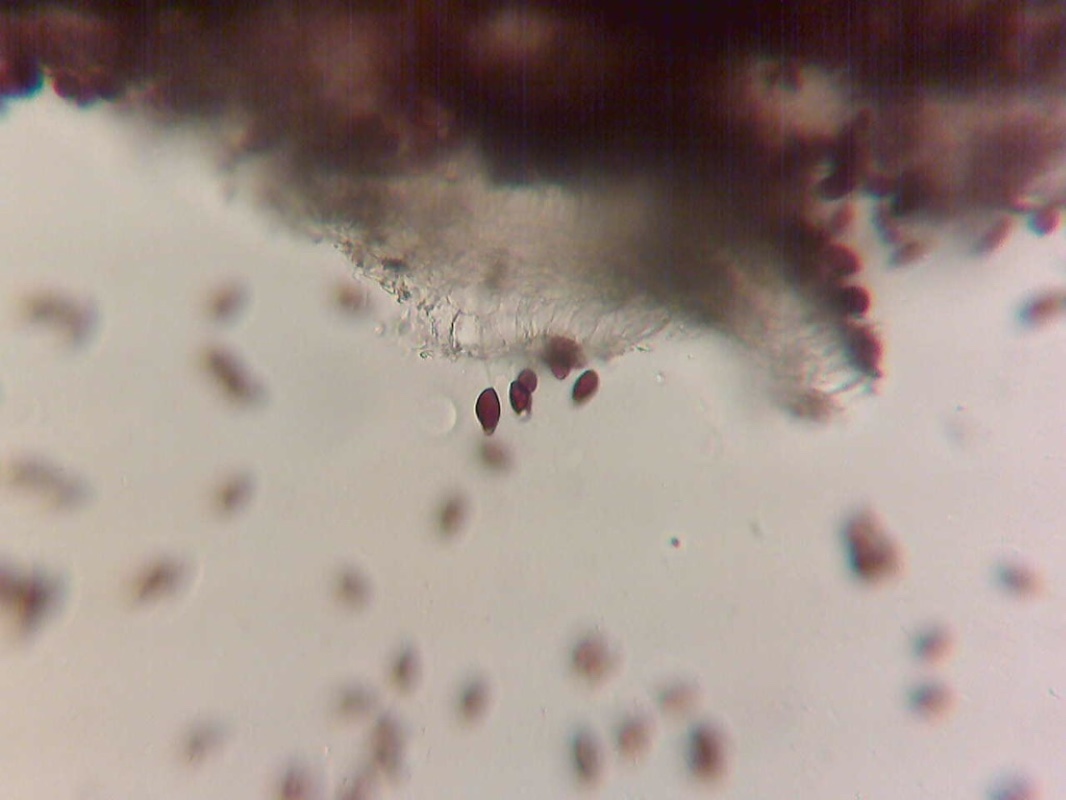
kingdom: Fungi
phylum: Basidiomycota
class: Agaricomycetes
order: Agaricales
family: Psathyrellaceae
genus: Tulosesus
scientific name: Tulosesus bisporus
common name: tosporet blækhat
